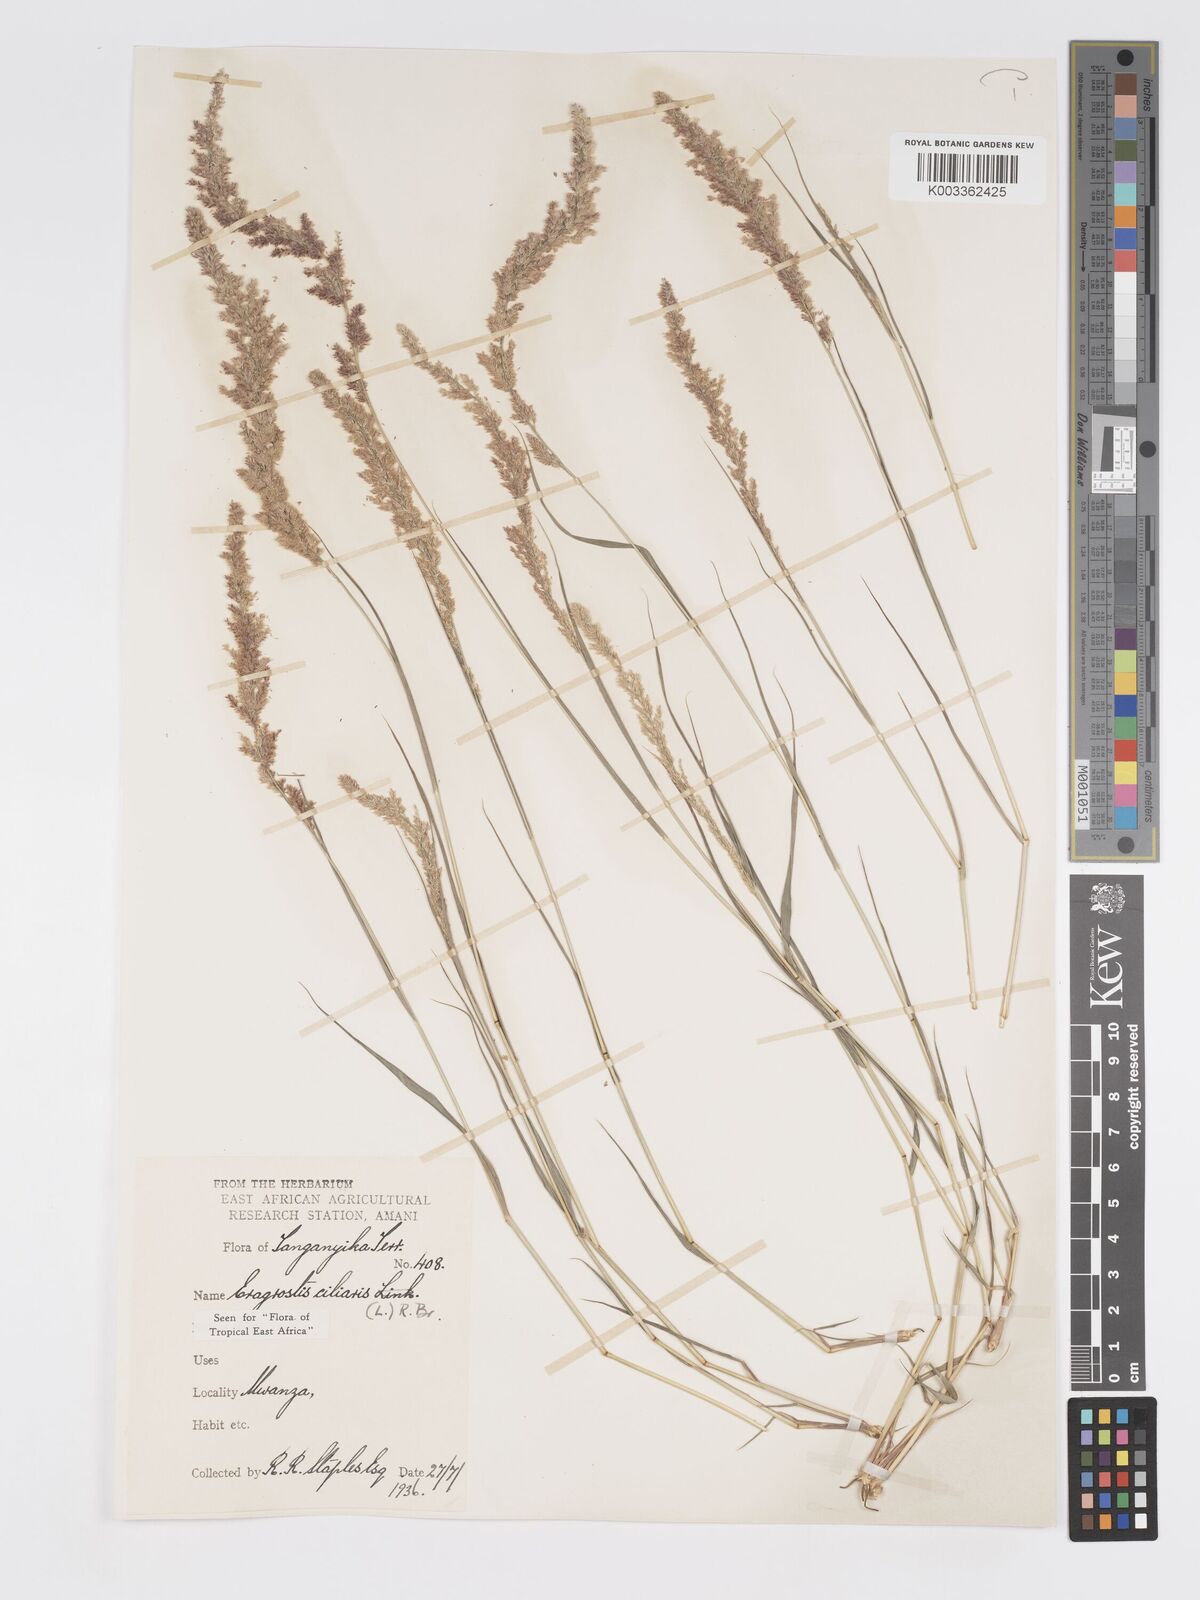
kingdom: Plantae
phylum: Tracheophyta
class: Liliopsida
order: Poales
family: Poaceae
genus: Eragrostis
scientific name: Eragrostis ciliaris
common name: Gophertail lovegrass
